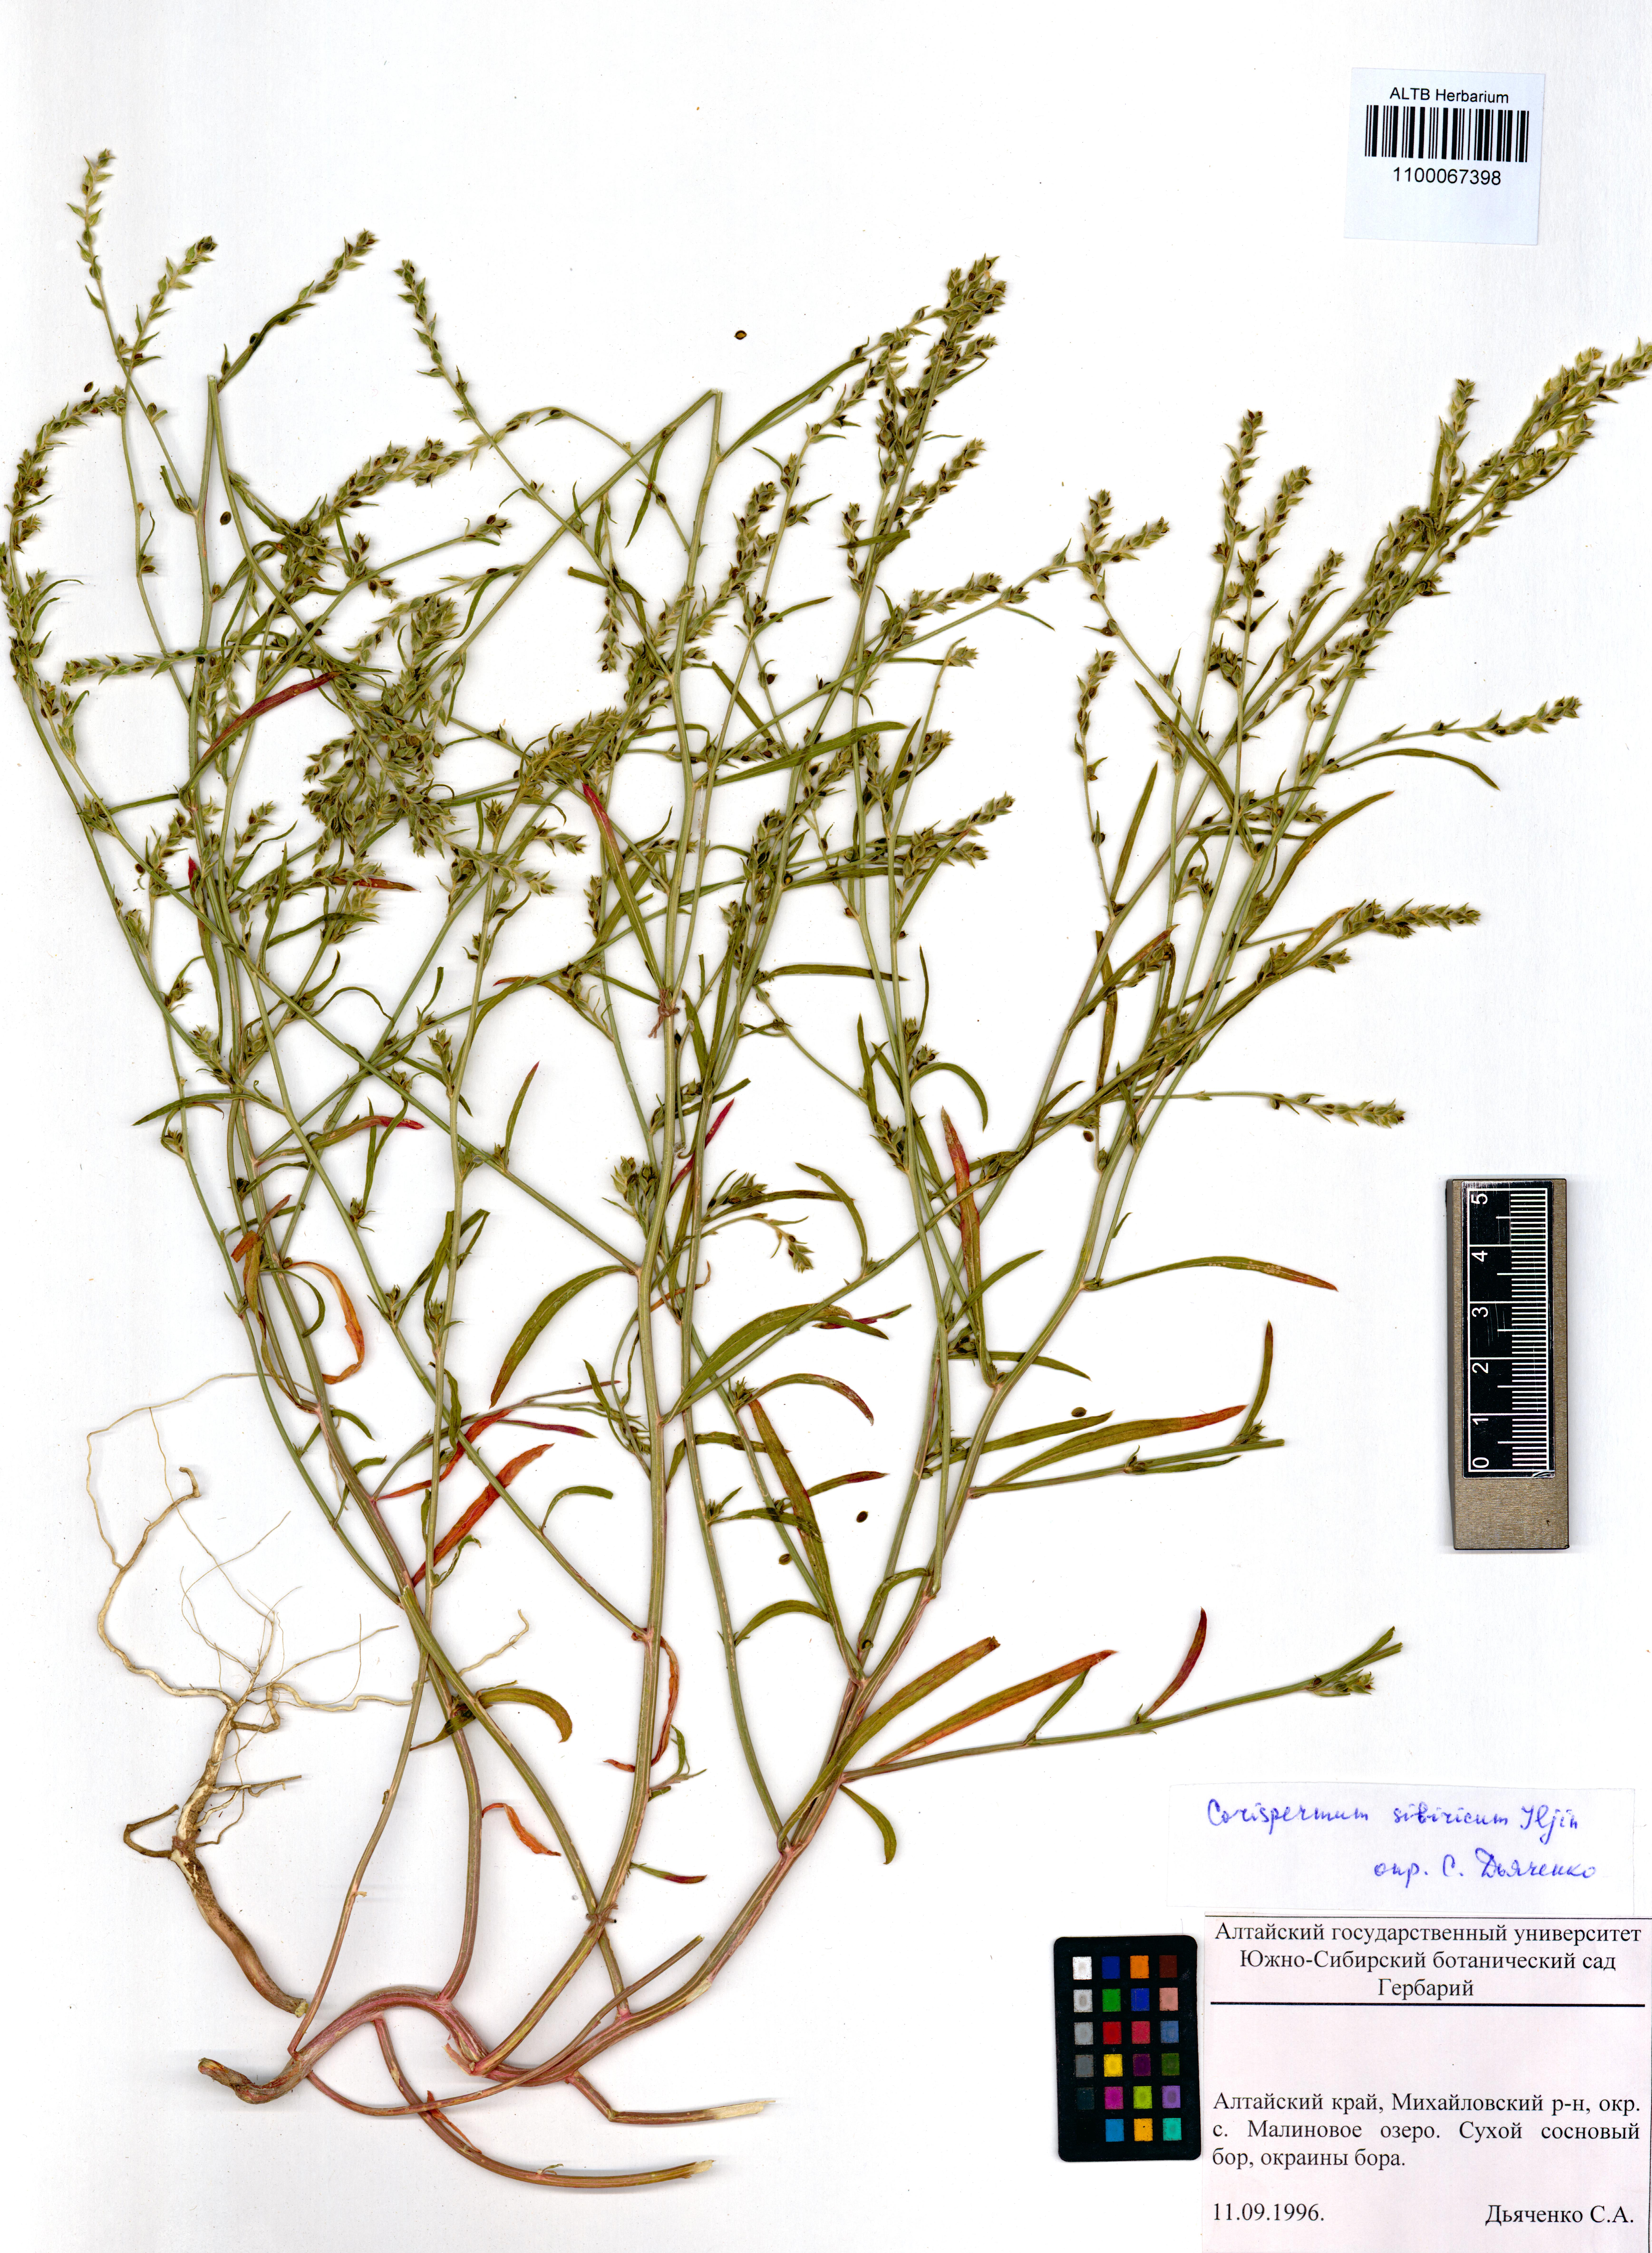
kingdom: Plantae
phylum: Tracheophyta
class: Magnoliopsida
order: Caryophyllales
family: Amaranthaceae
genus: Corispermum
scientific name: Corispermum sibiricum
